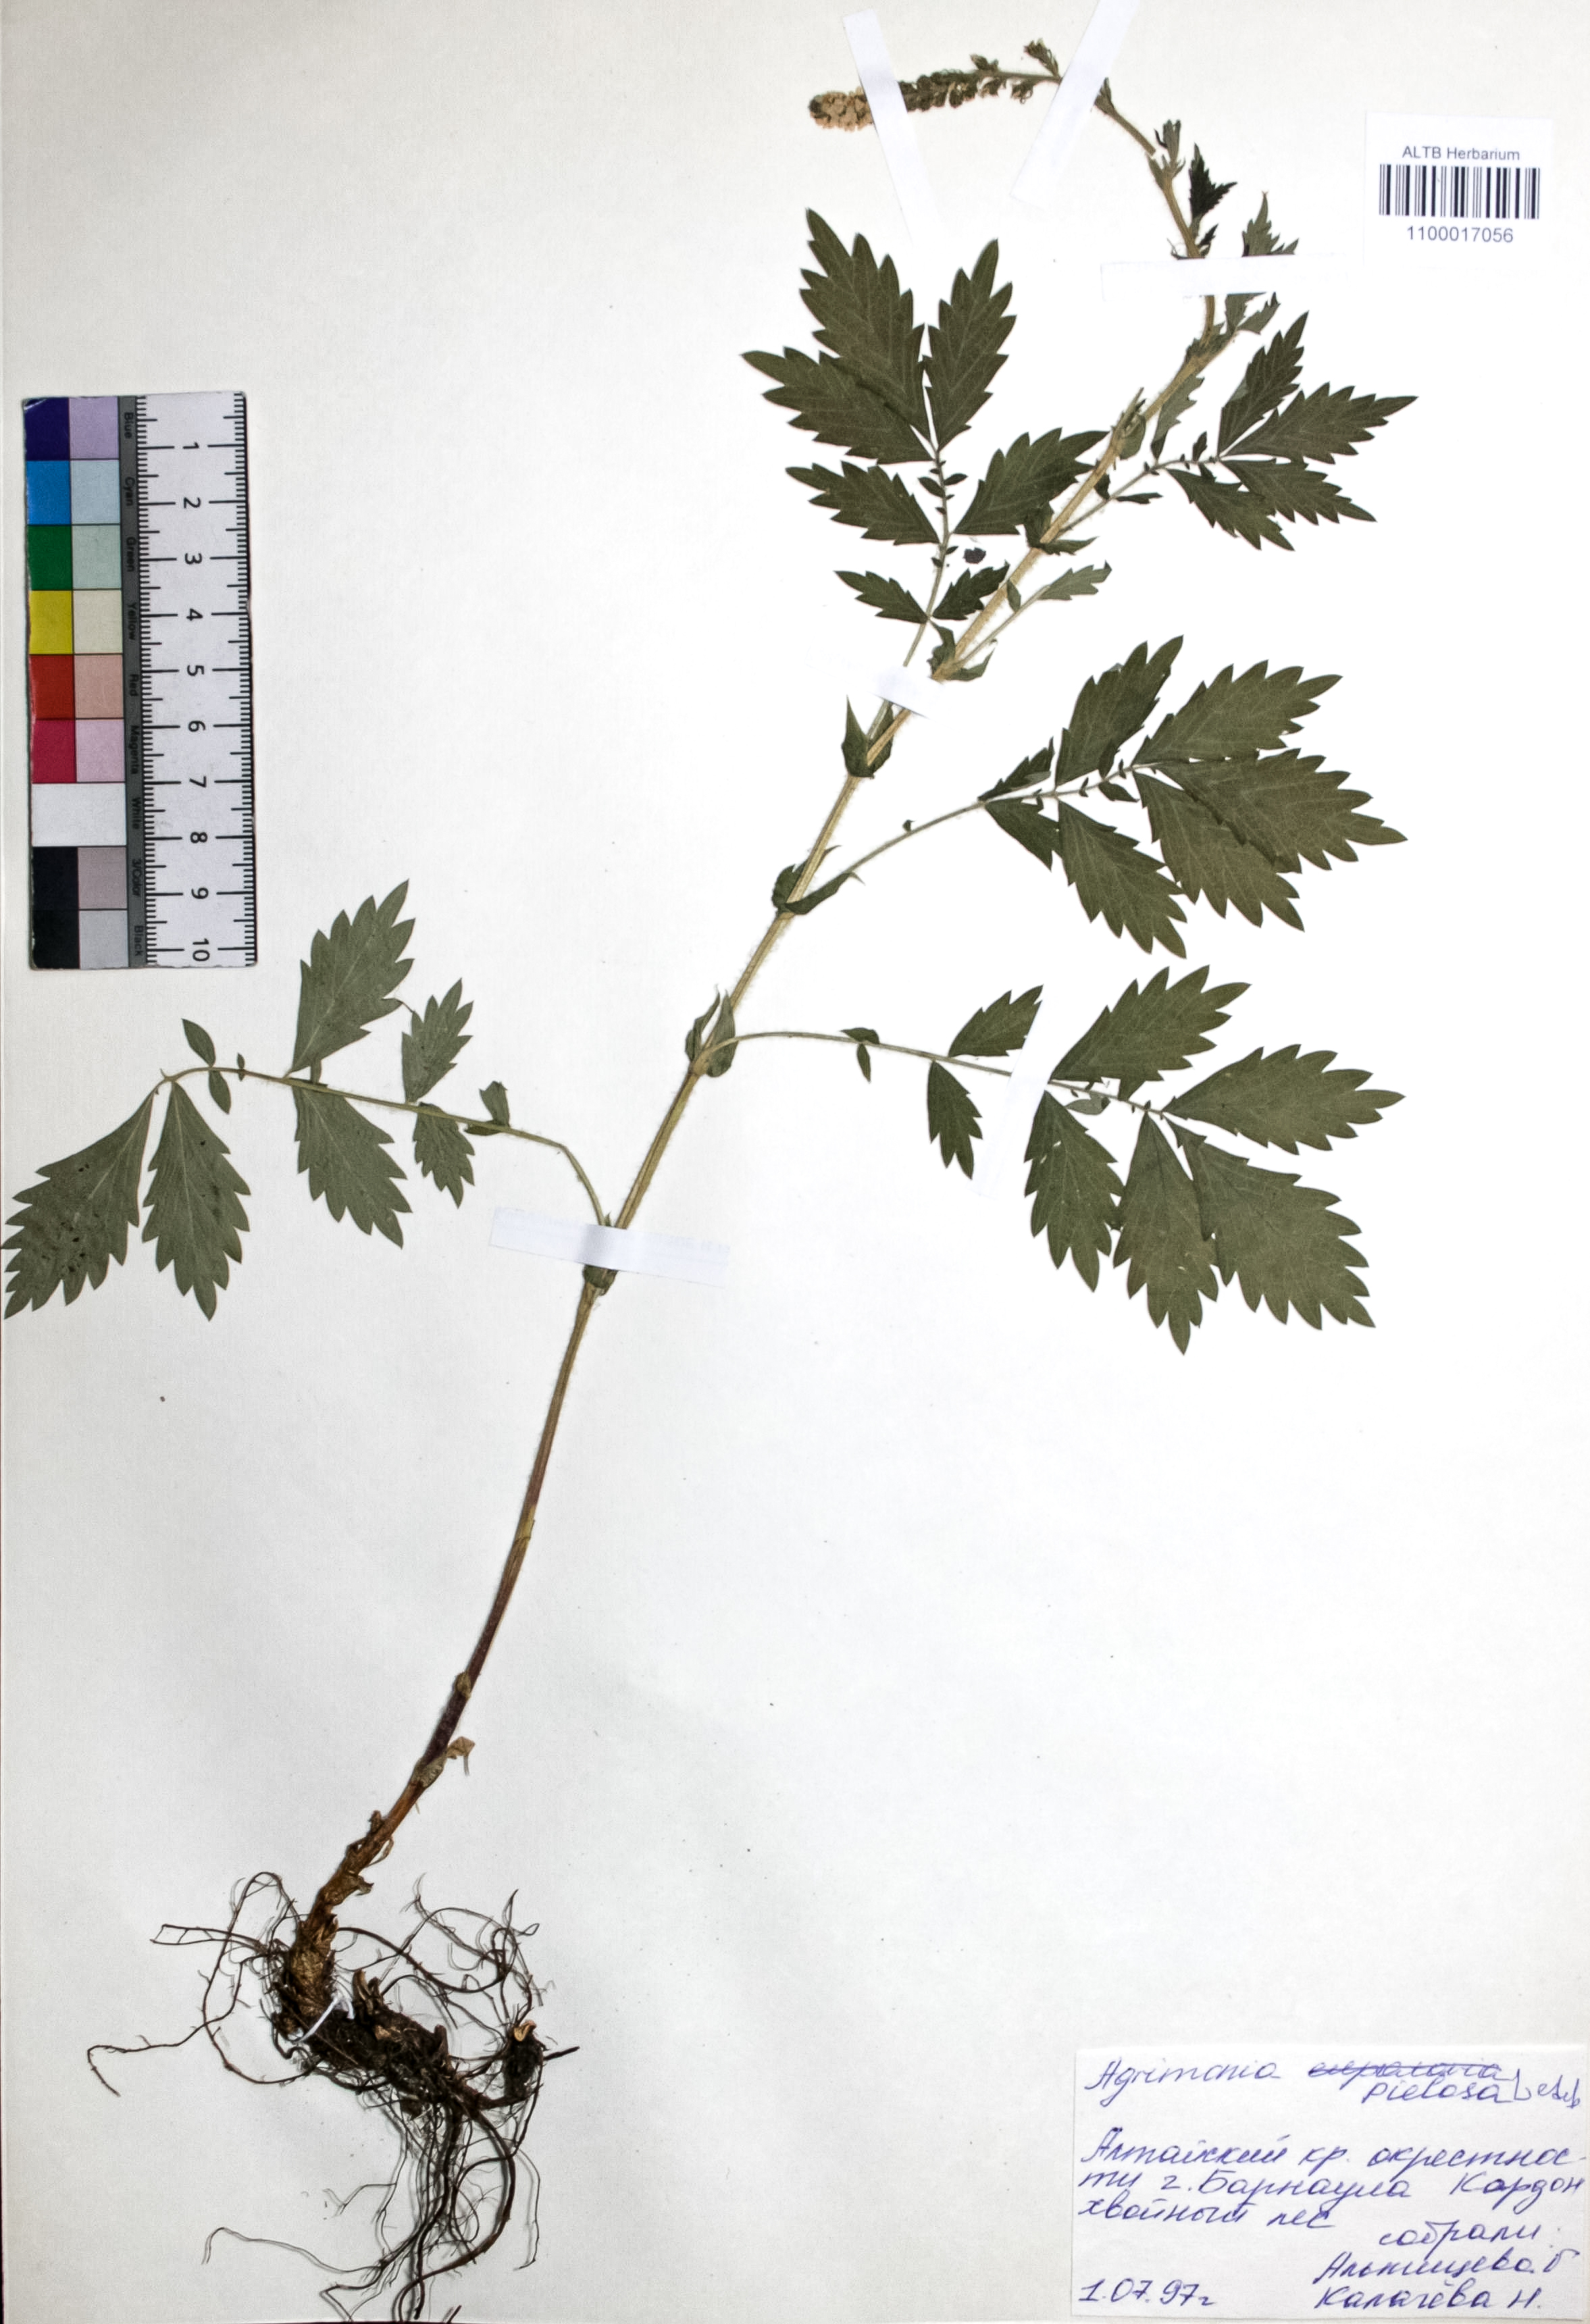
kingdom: Plantae
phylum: Tracheophyta
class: Magnoliopsida
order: Rosales
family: Rosaceae
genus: Agrimonia
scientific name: Agrimonia pilosa
